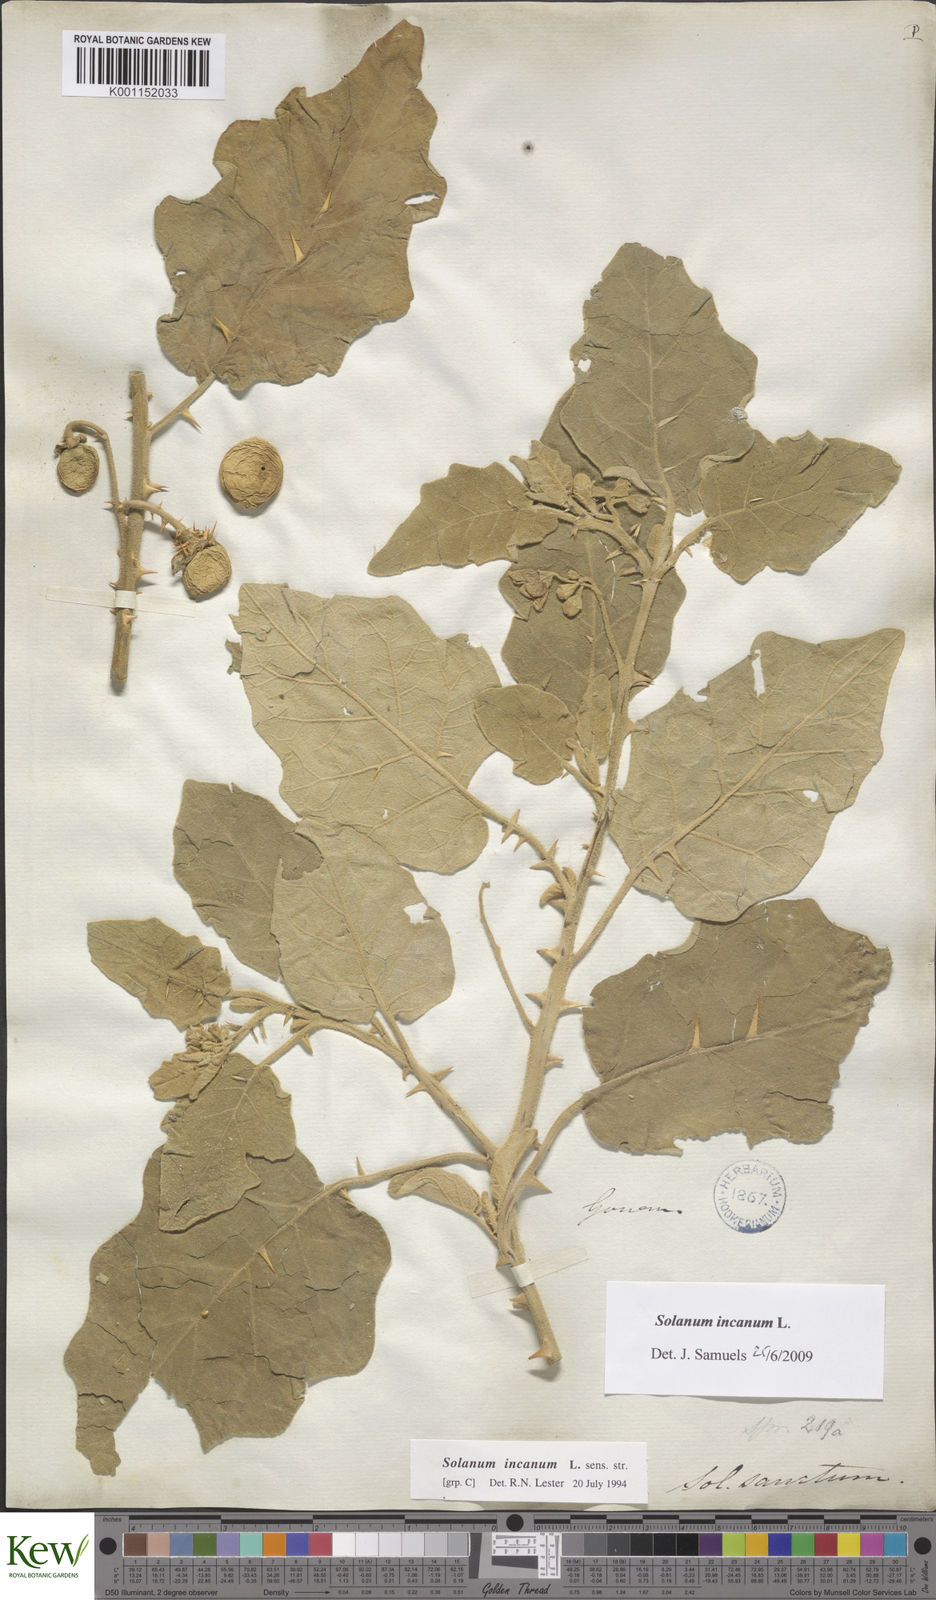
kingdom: Plantae
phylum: Tracheophyta
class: Magnoliopsida
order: Solanales
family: Solanaceae
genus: Solanum
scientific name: Solanum incanum
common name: Bitter apple
